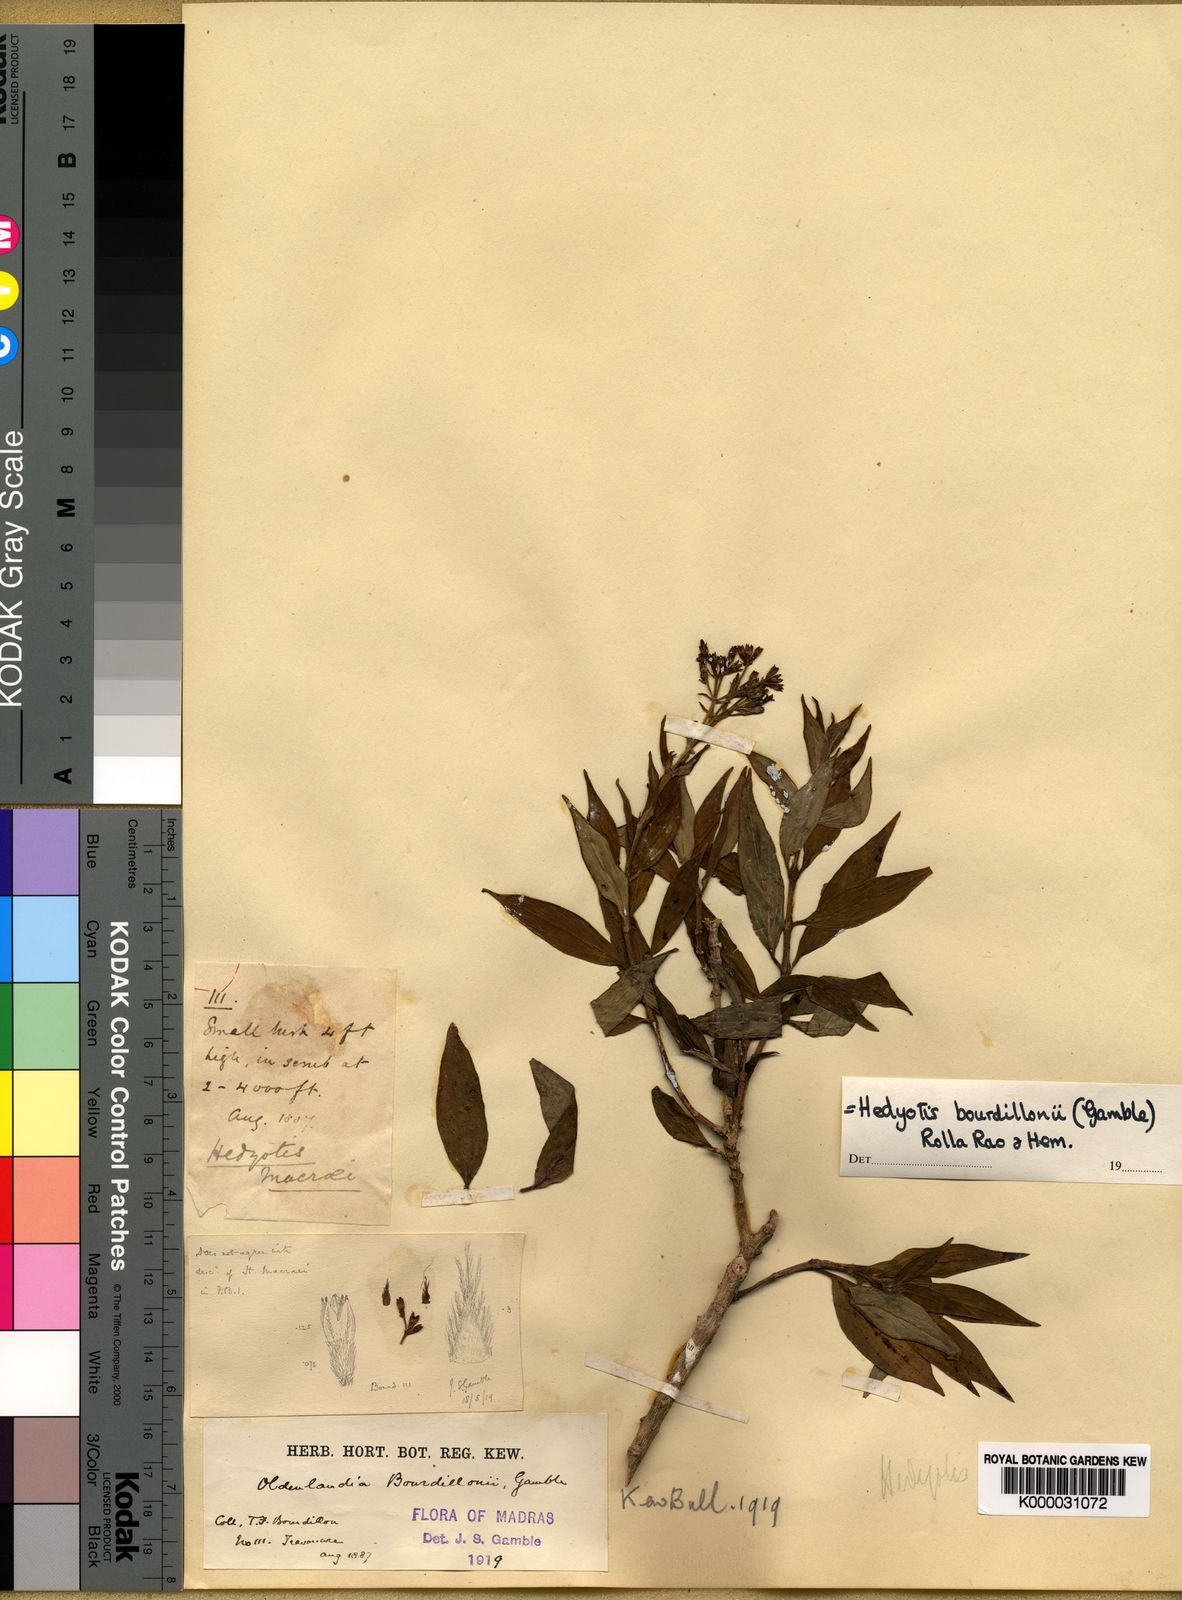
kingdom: Plantae
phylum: Tracheophyta
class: Magnoliopsida
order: Gentianales
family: Rubiaceae
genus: Hedyotis
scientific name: Hedyotis bourdillonii
